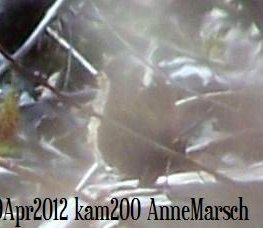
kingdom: Animalia
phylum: Arthropoda
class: Insecta
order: Lepidoptera
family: Nymphalidae
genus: Nymphalis
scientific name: Nymphalis antiopa
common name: Mourning Cloak
